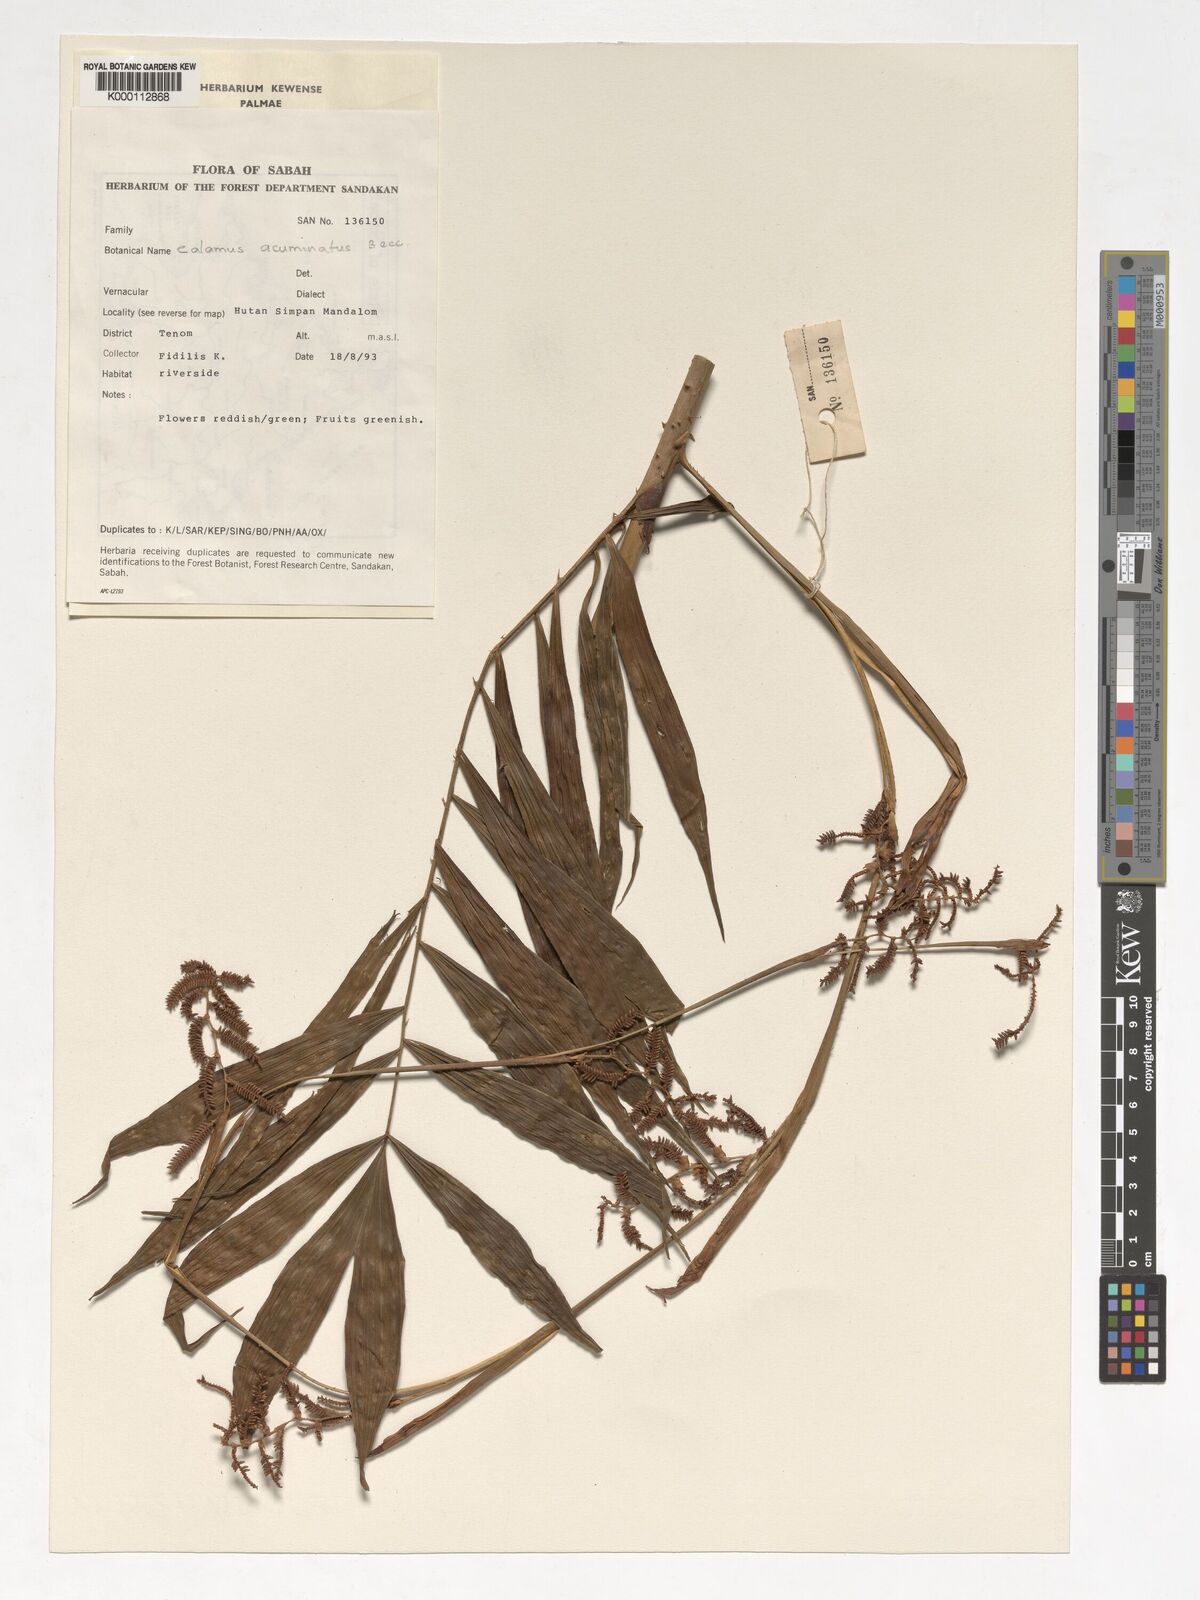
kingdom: Plantae
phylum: Tracheophyta
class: Liliopsida
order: Arecales
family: Arecaceae
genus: Calamus
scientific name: Calamus javensis
